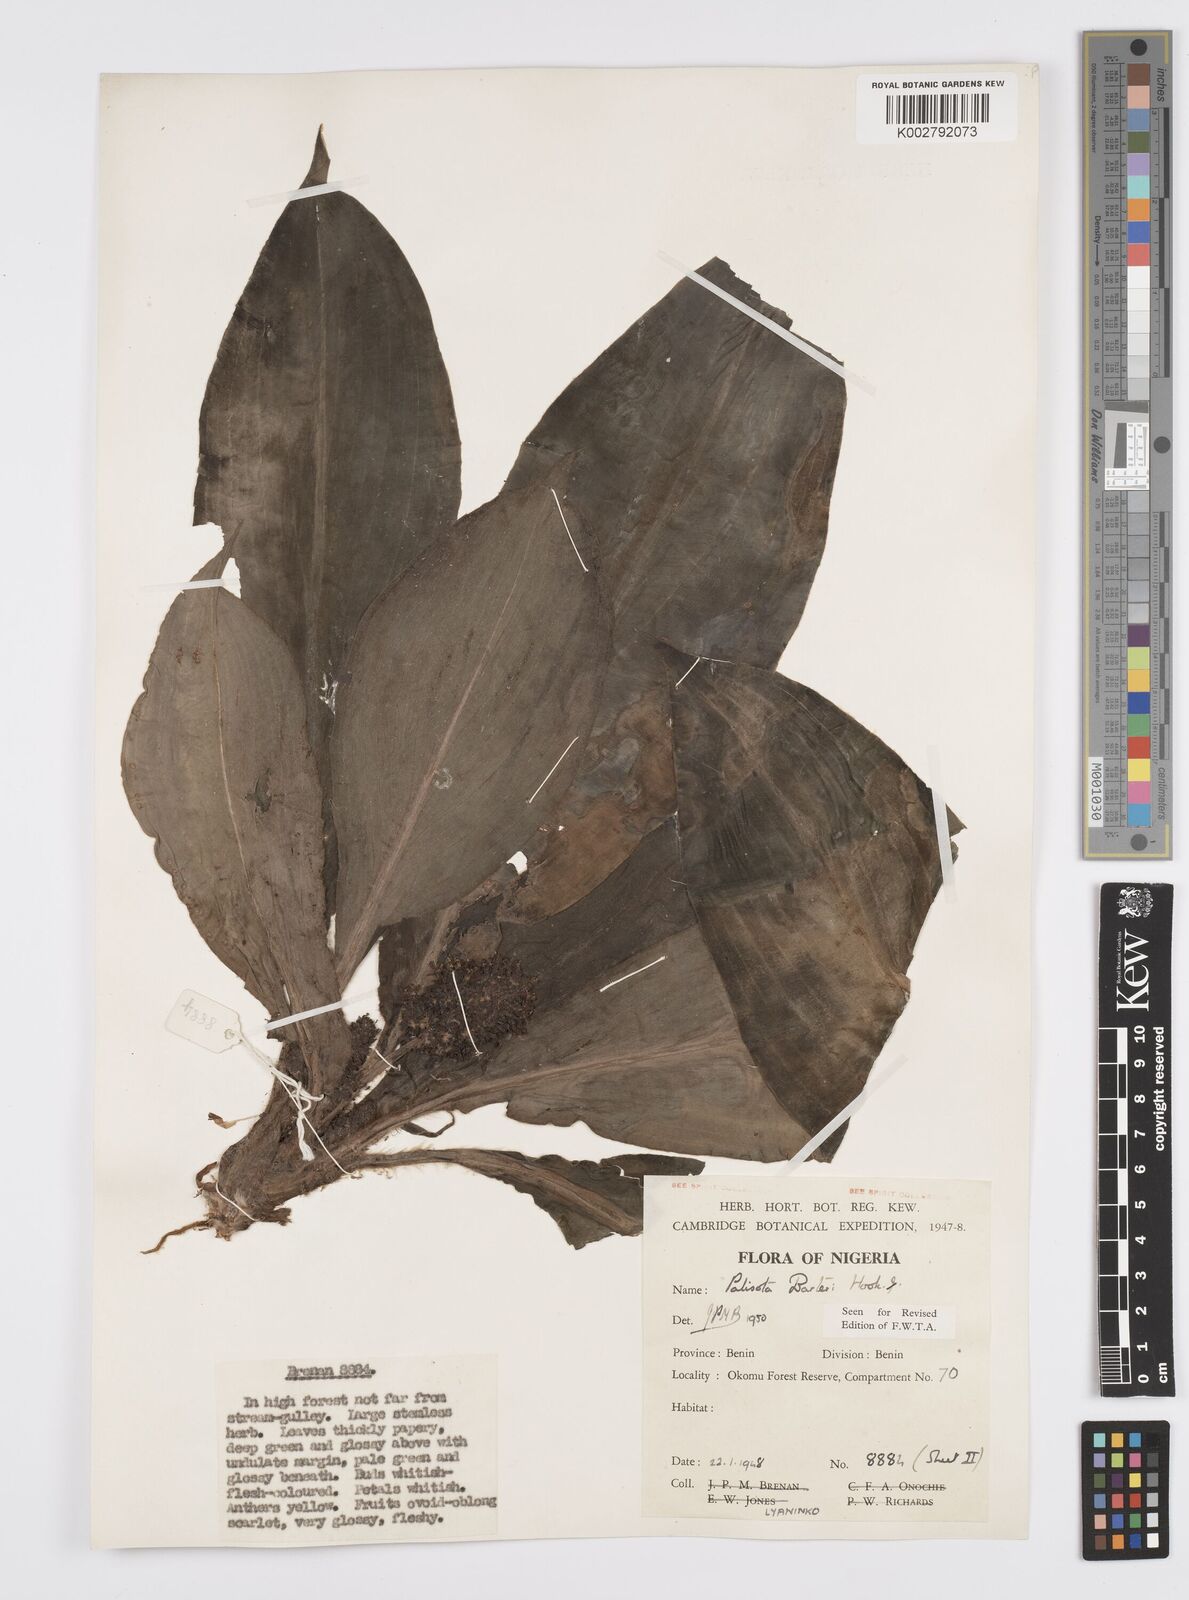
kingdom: Plantae
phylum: Tracheophyta
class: Liliopsida
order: Commelinales
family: Commelinaceae
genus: Palisota
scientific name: Palisota barteri
